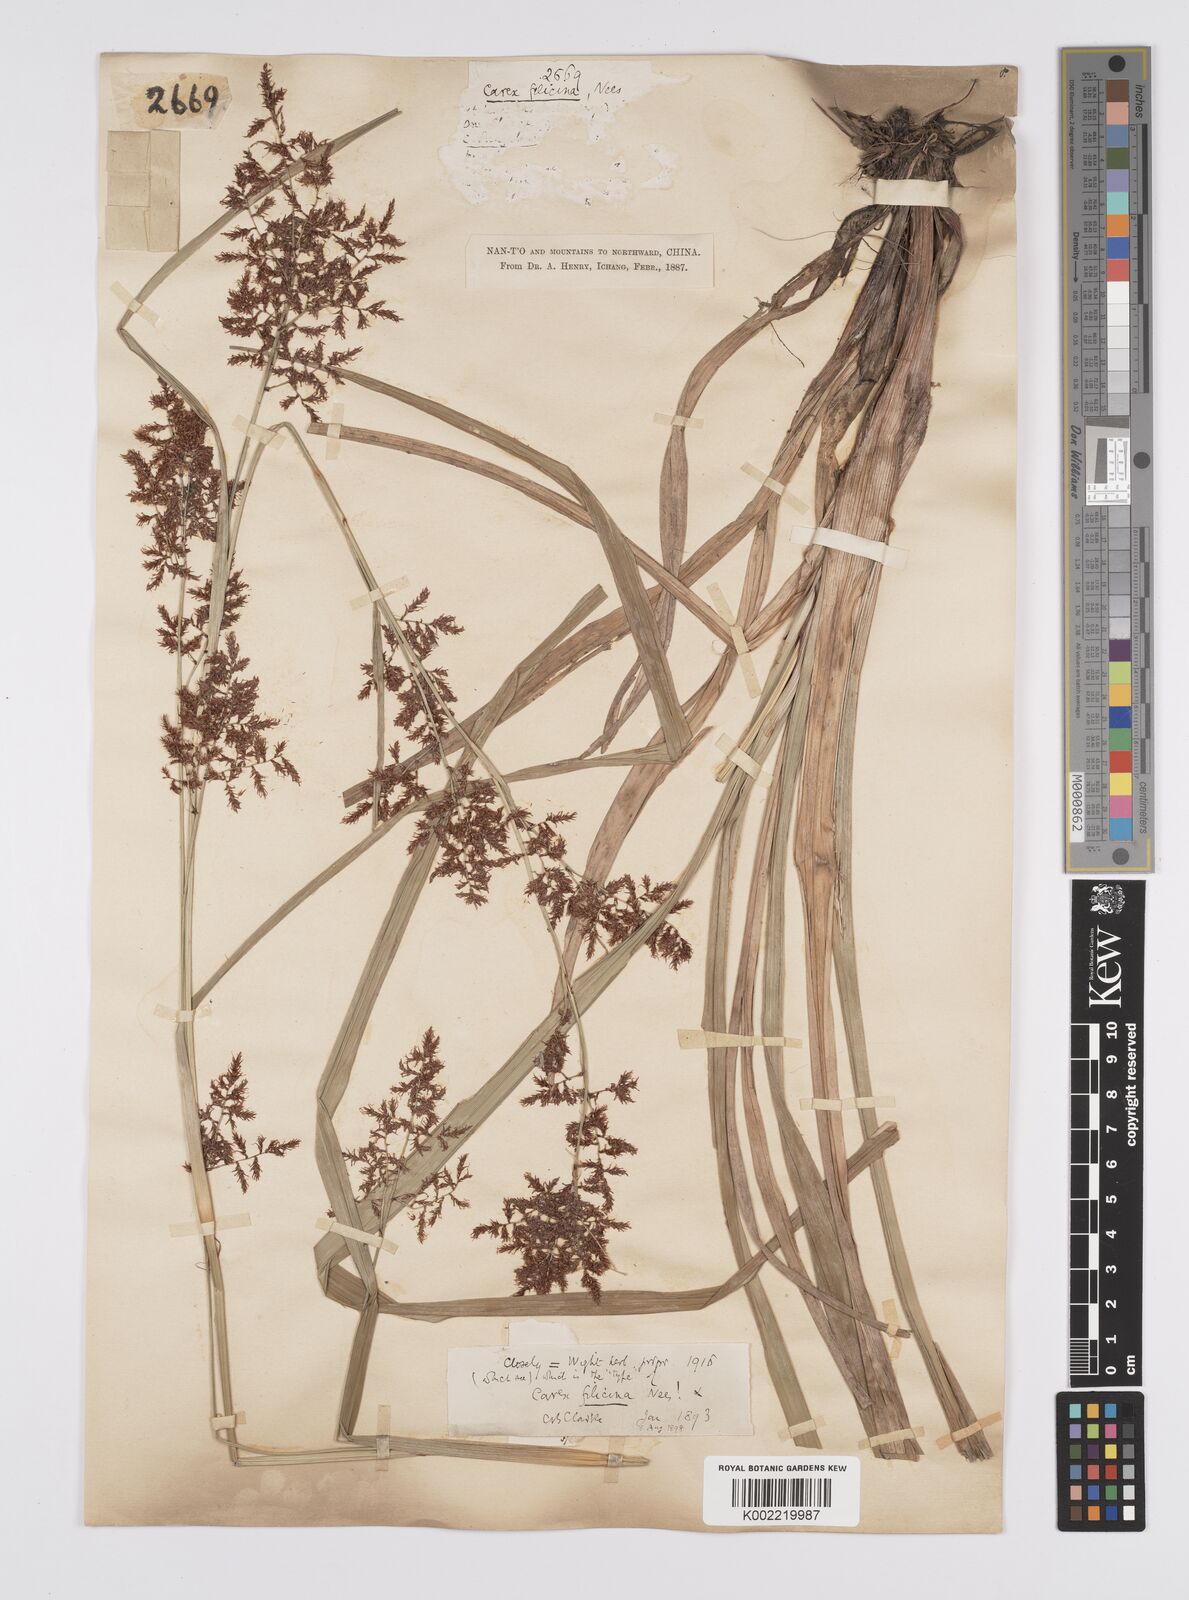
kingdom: Plantae
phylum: Tracheophyta
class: Liliopsida
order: Poales
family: Cyperaceae
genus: Carex
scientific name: Carex filicina
